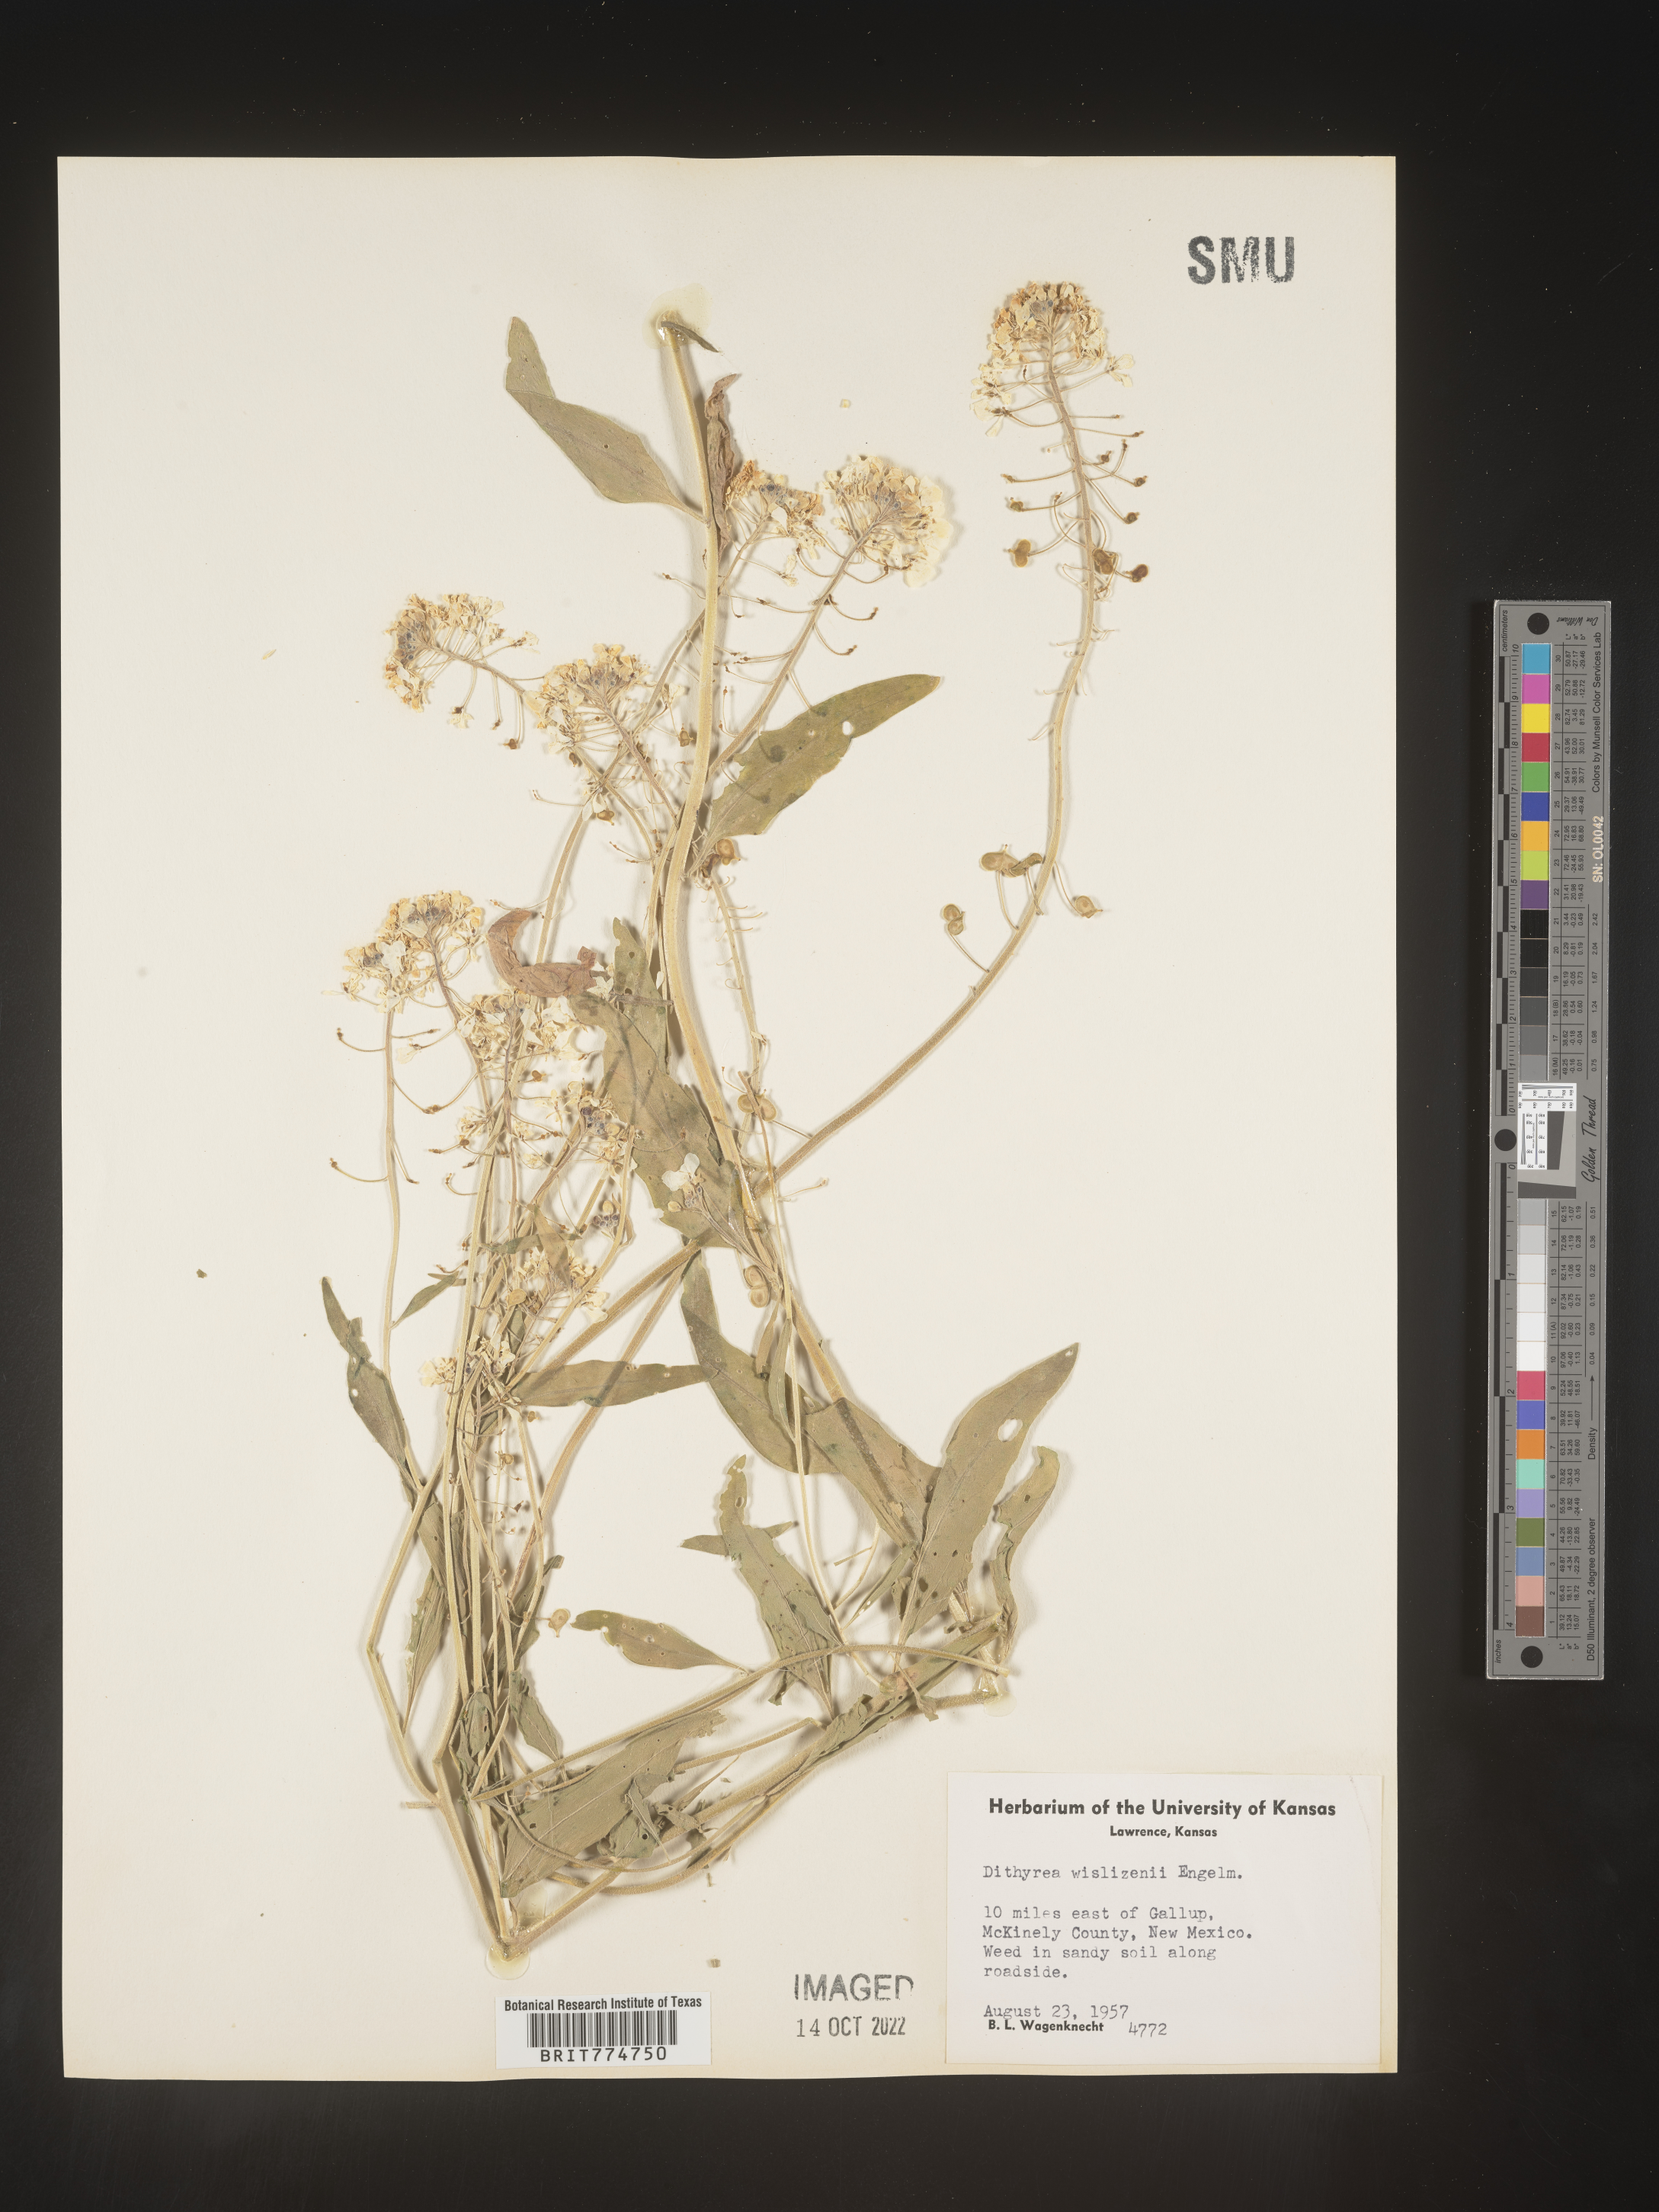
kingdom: Plantae
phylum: Tracheophyta
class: Magnoliopsida
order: Brassicales
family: Brassicaceae
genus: Dimorphocarpa
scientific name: Dimorphocarpa wislizenii
